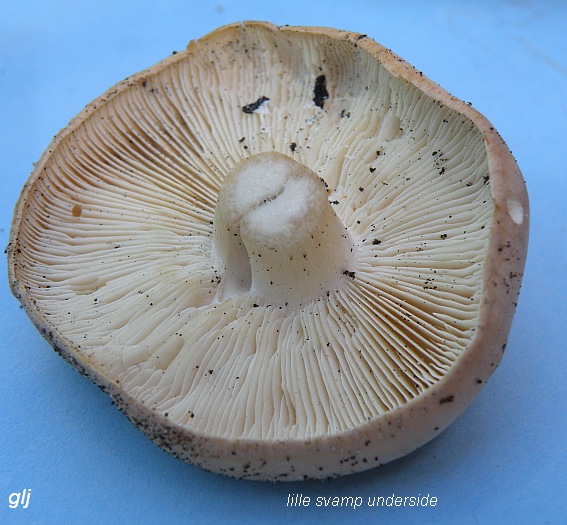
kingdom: Fungi
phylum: Basidiomycota
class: Agaricomycetes
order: Agaricales
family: Lyophyllaceae
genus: Calocybe
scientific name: Calocybe gambosa
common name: vårmusseron
